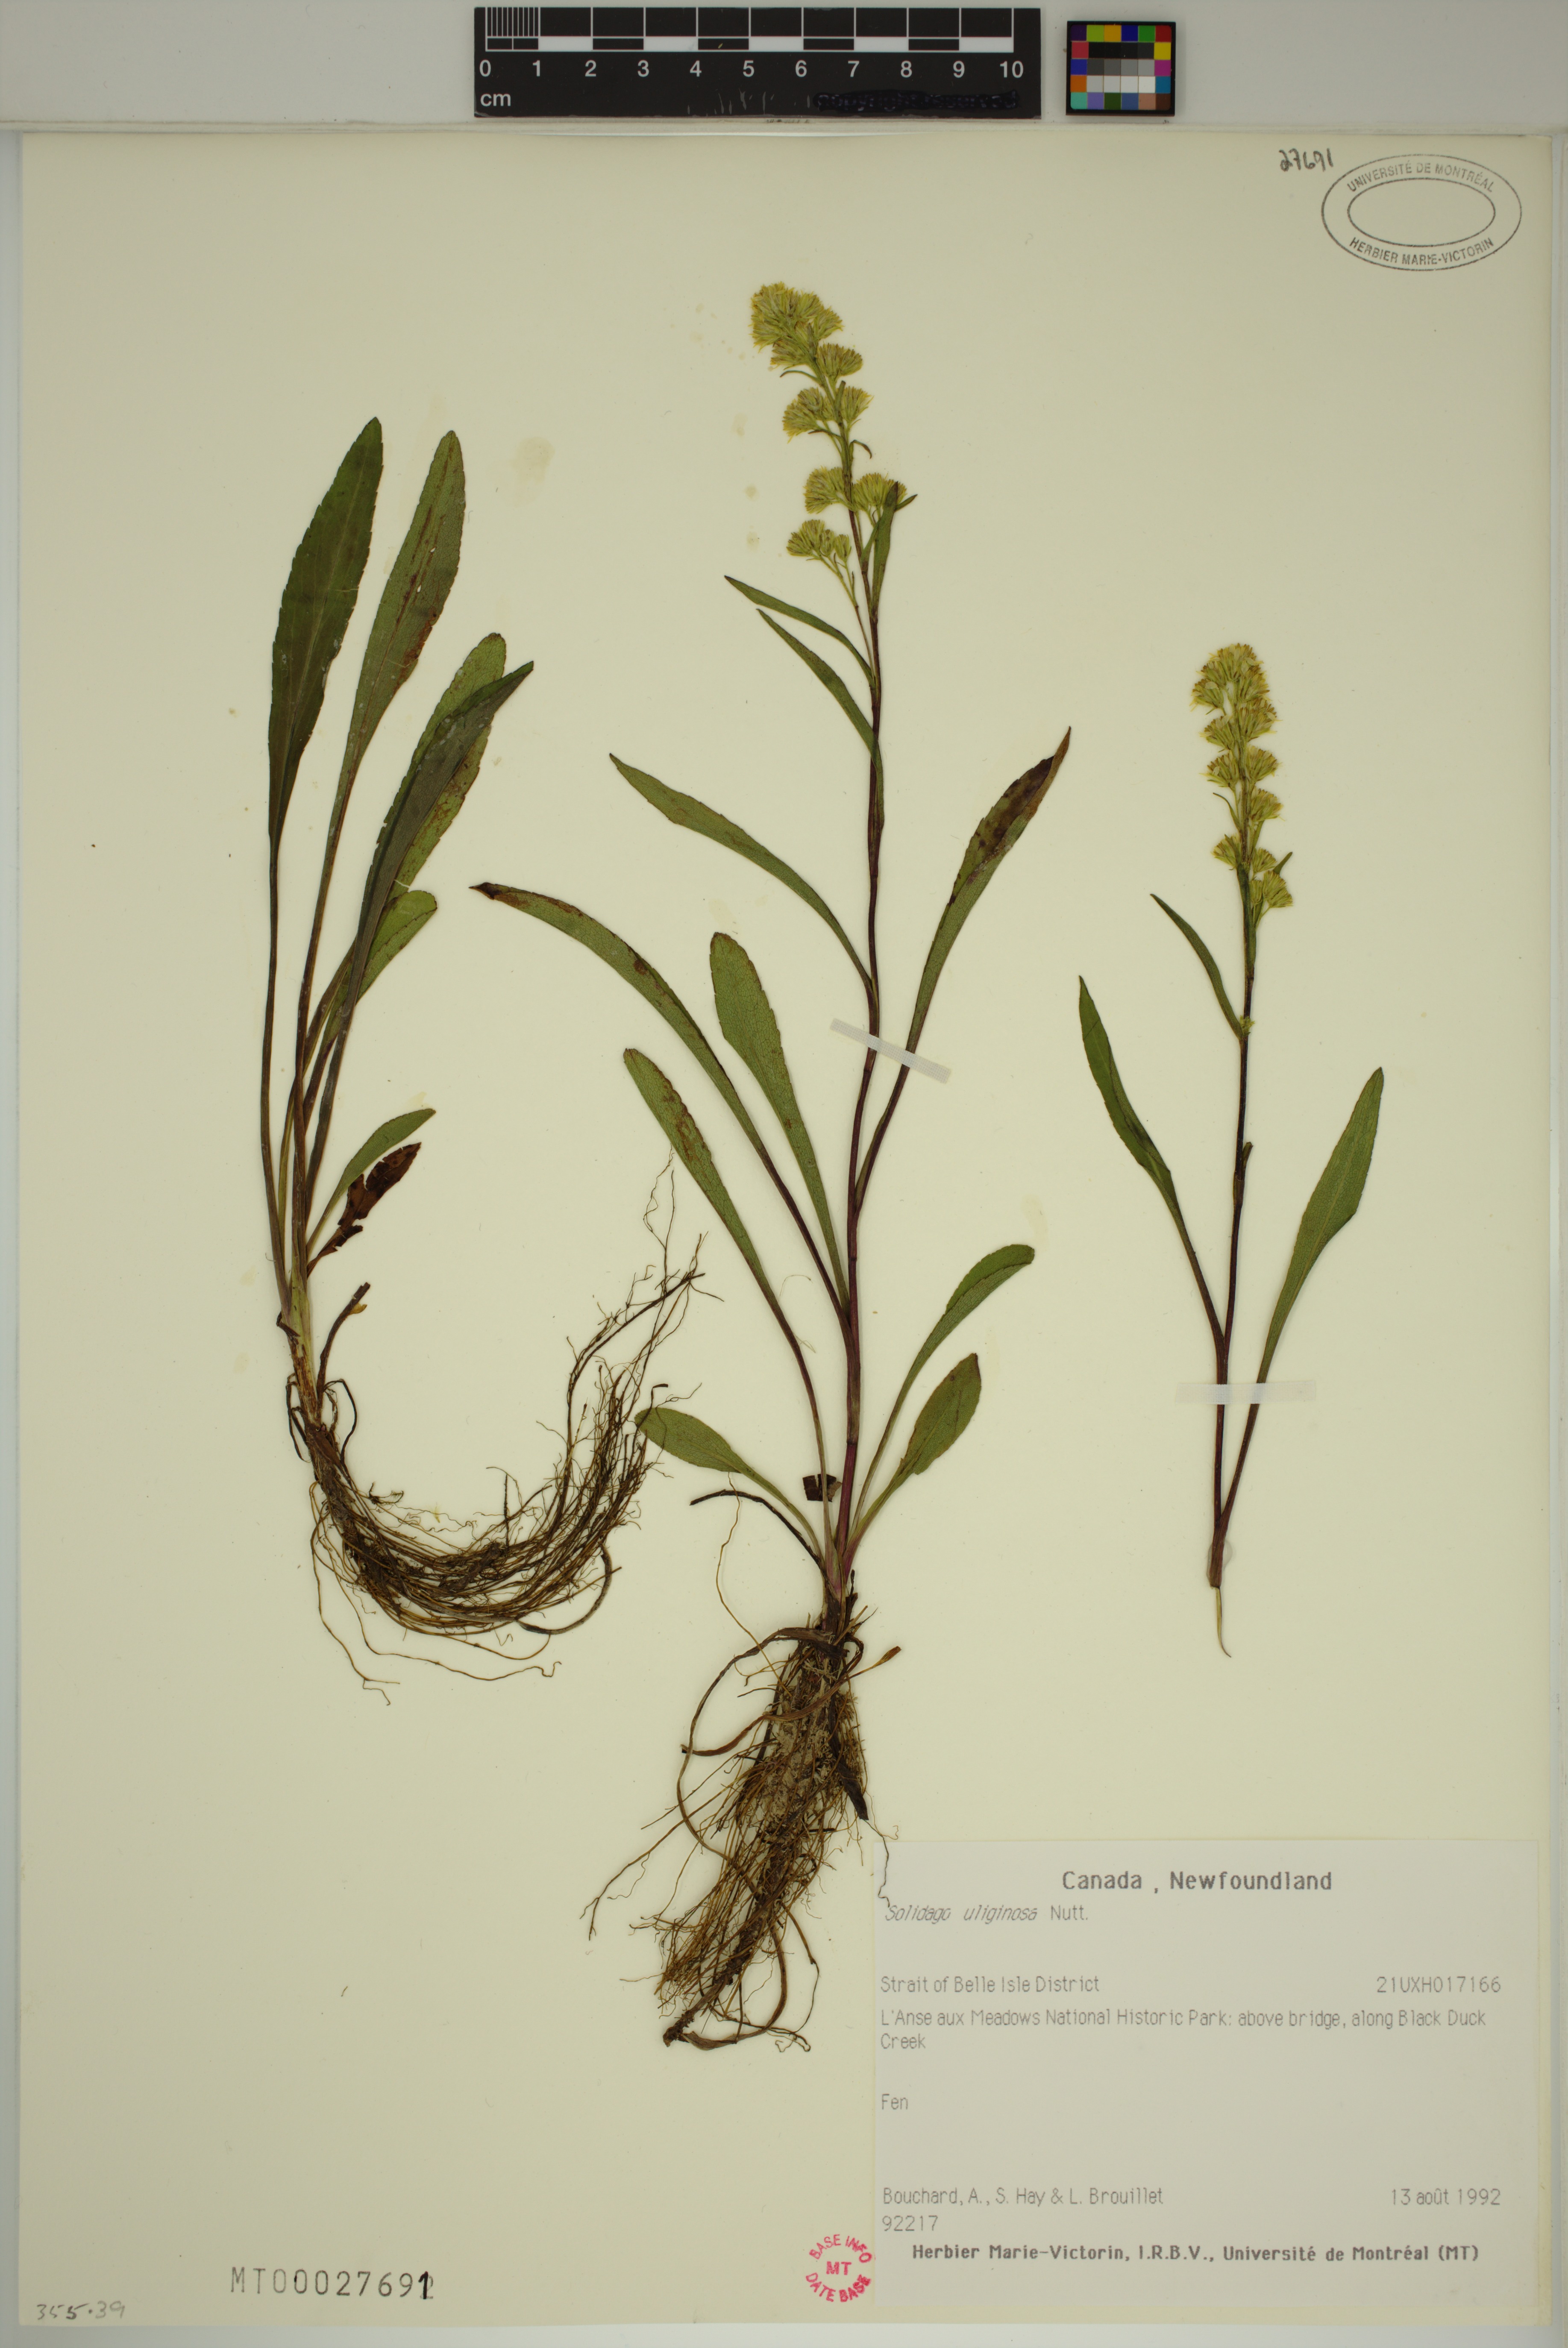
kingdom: Plantae
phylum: Tracheophyta
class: Magnoliopsida
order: Asterales
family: Asteraceae
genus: Solidago
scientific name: Solidago uliginosa
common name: Bog goldenrod
